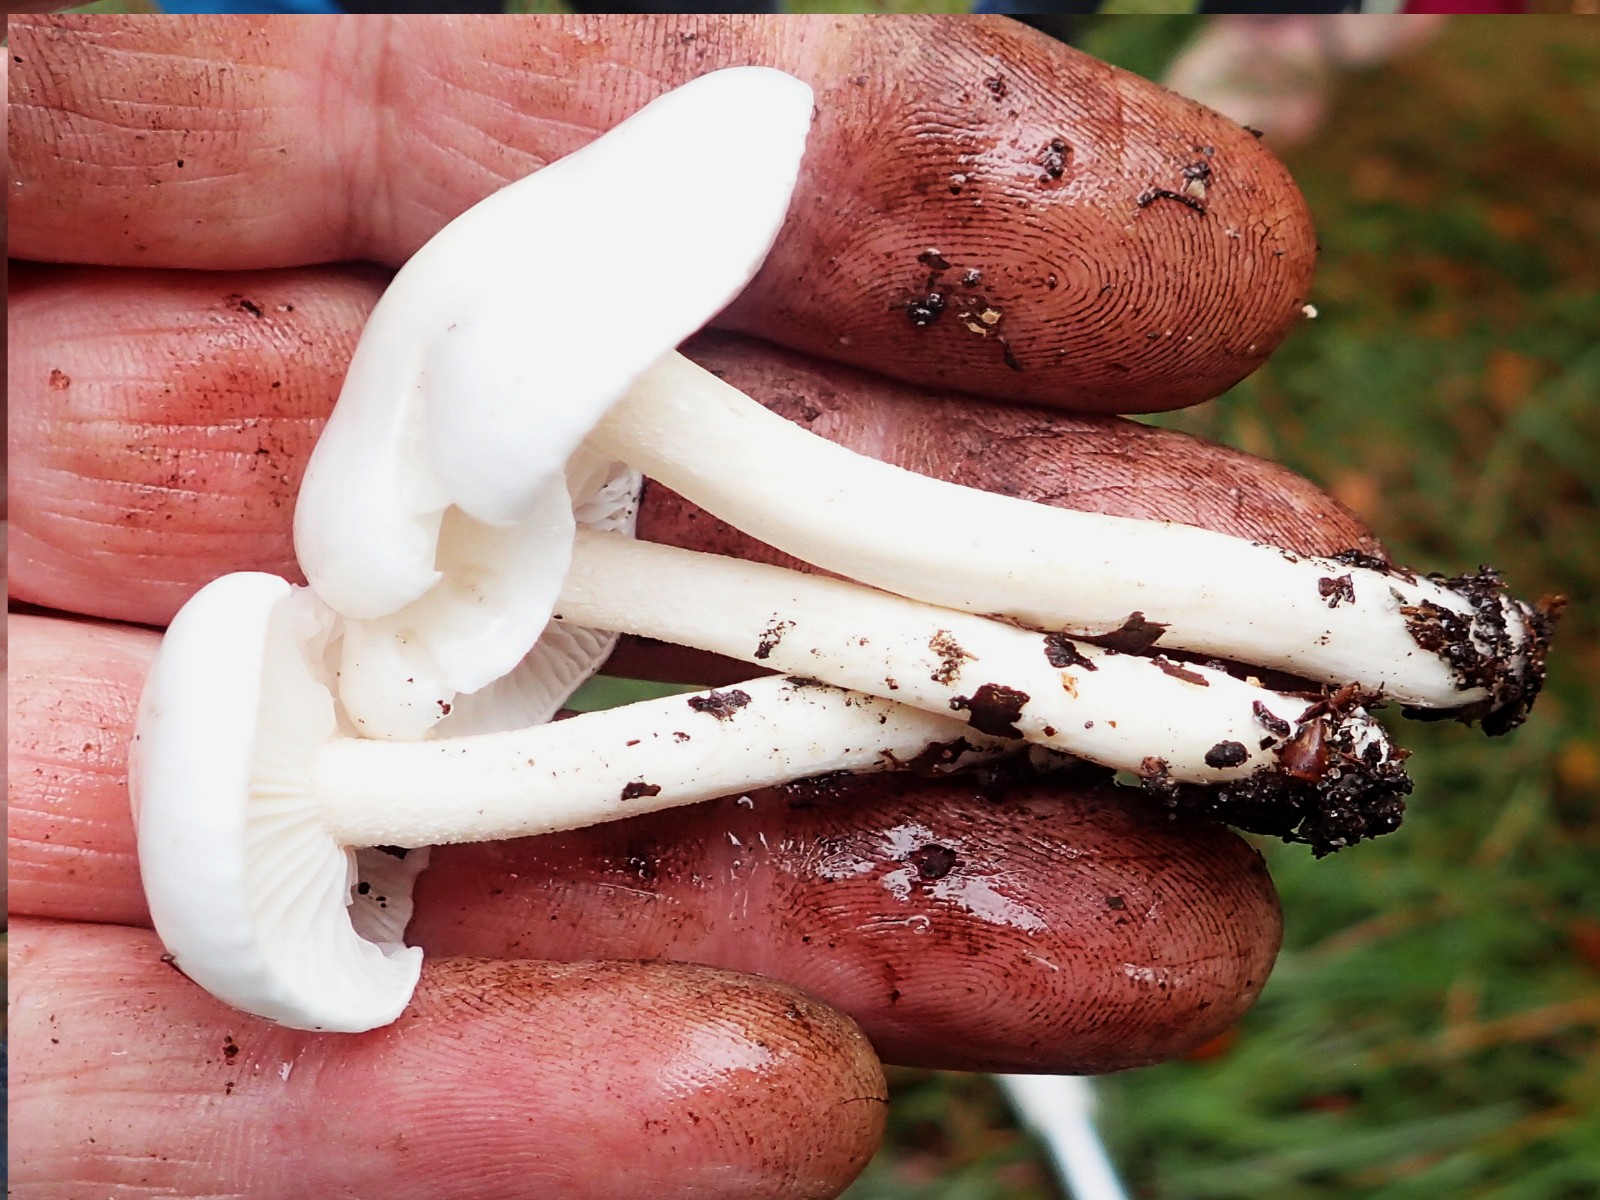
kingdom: Fungi
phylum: Basidiomycota
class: Agaricomycetes
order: Agaricales
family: Hygrophoraceae
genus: Hygrophorus
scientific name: Hygrophorus eburneus
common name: elfenbens-sneglehat
